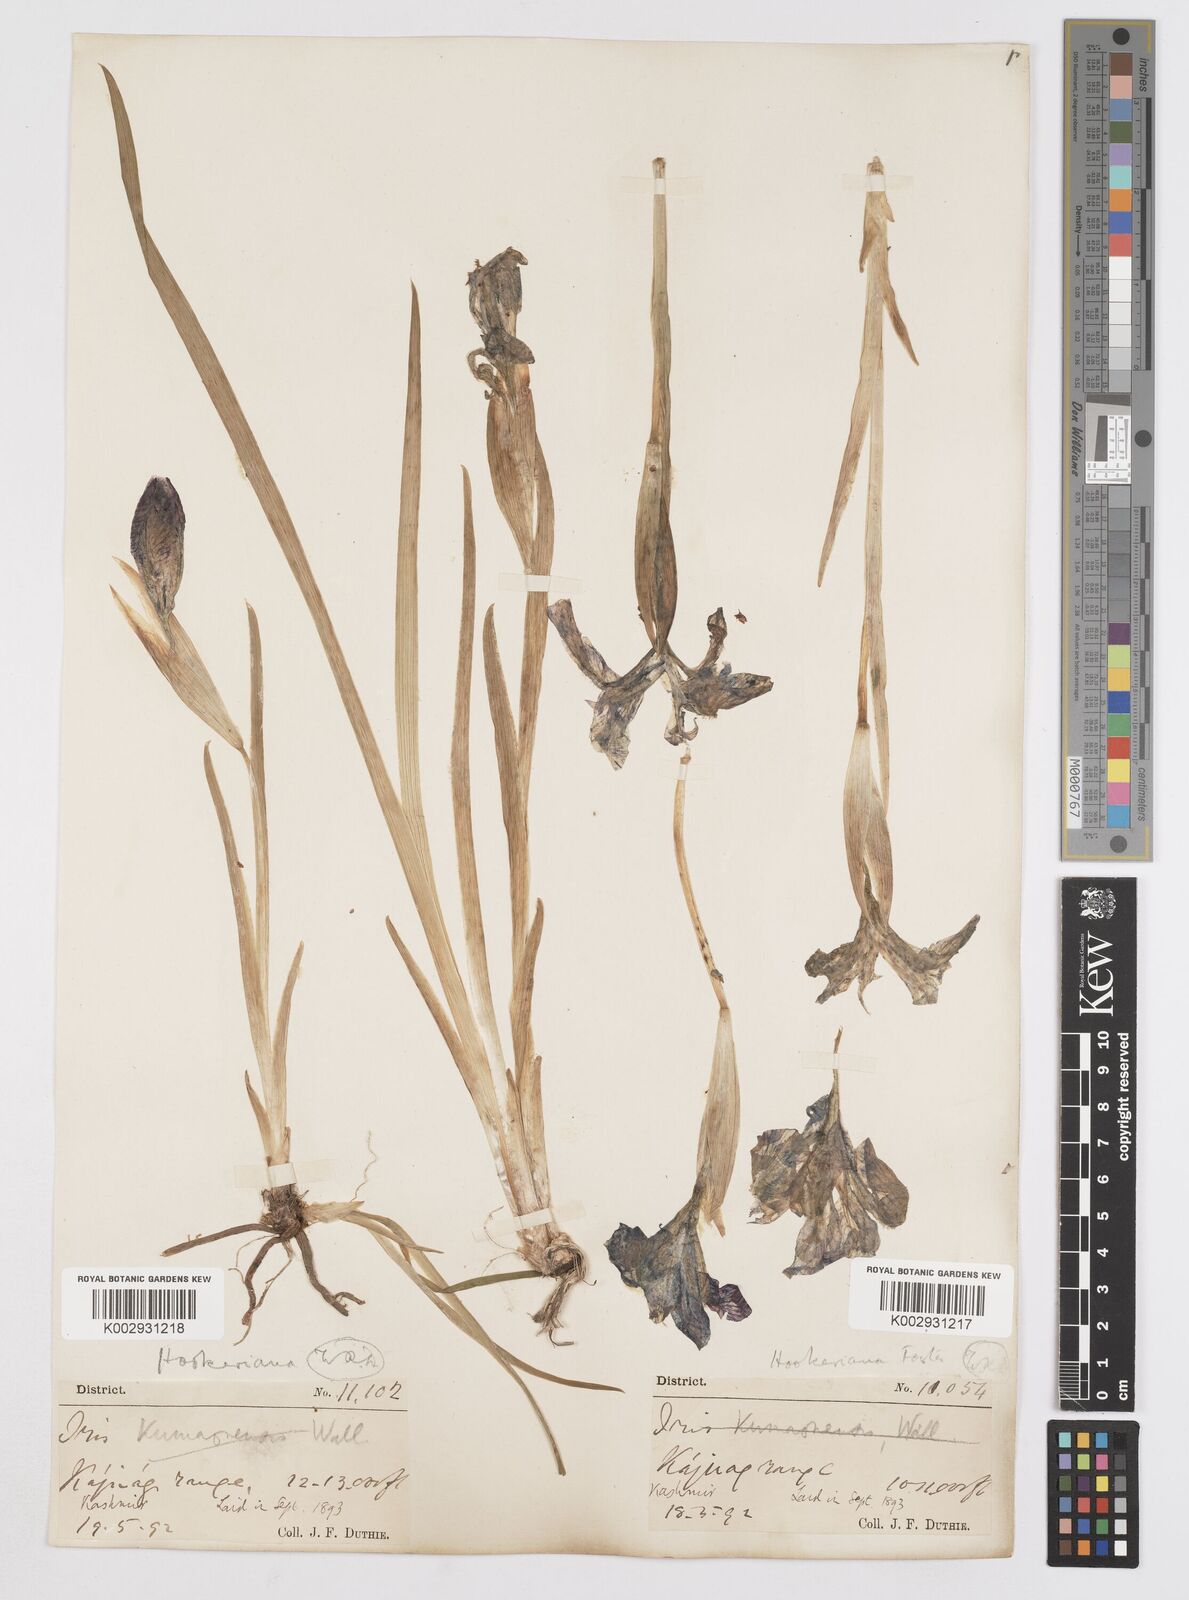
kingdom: Plantae
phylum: Tracheophyta
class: Liliopsida
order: Asparagales
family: Iridaceae
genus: Iris
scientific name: Iris hookeriana
